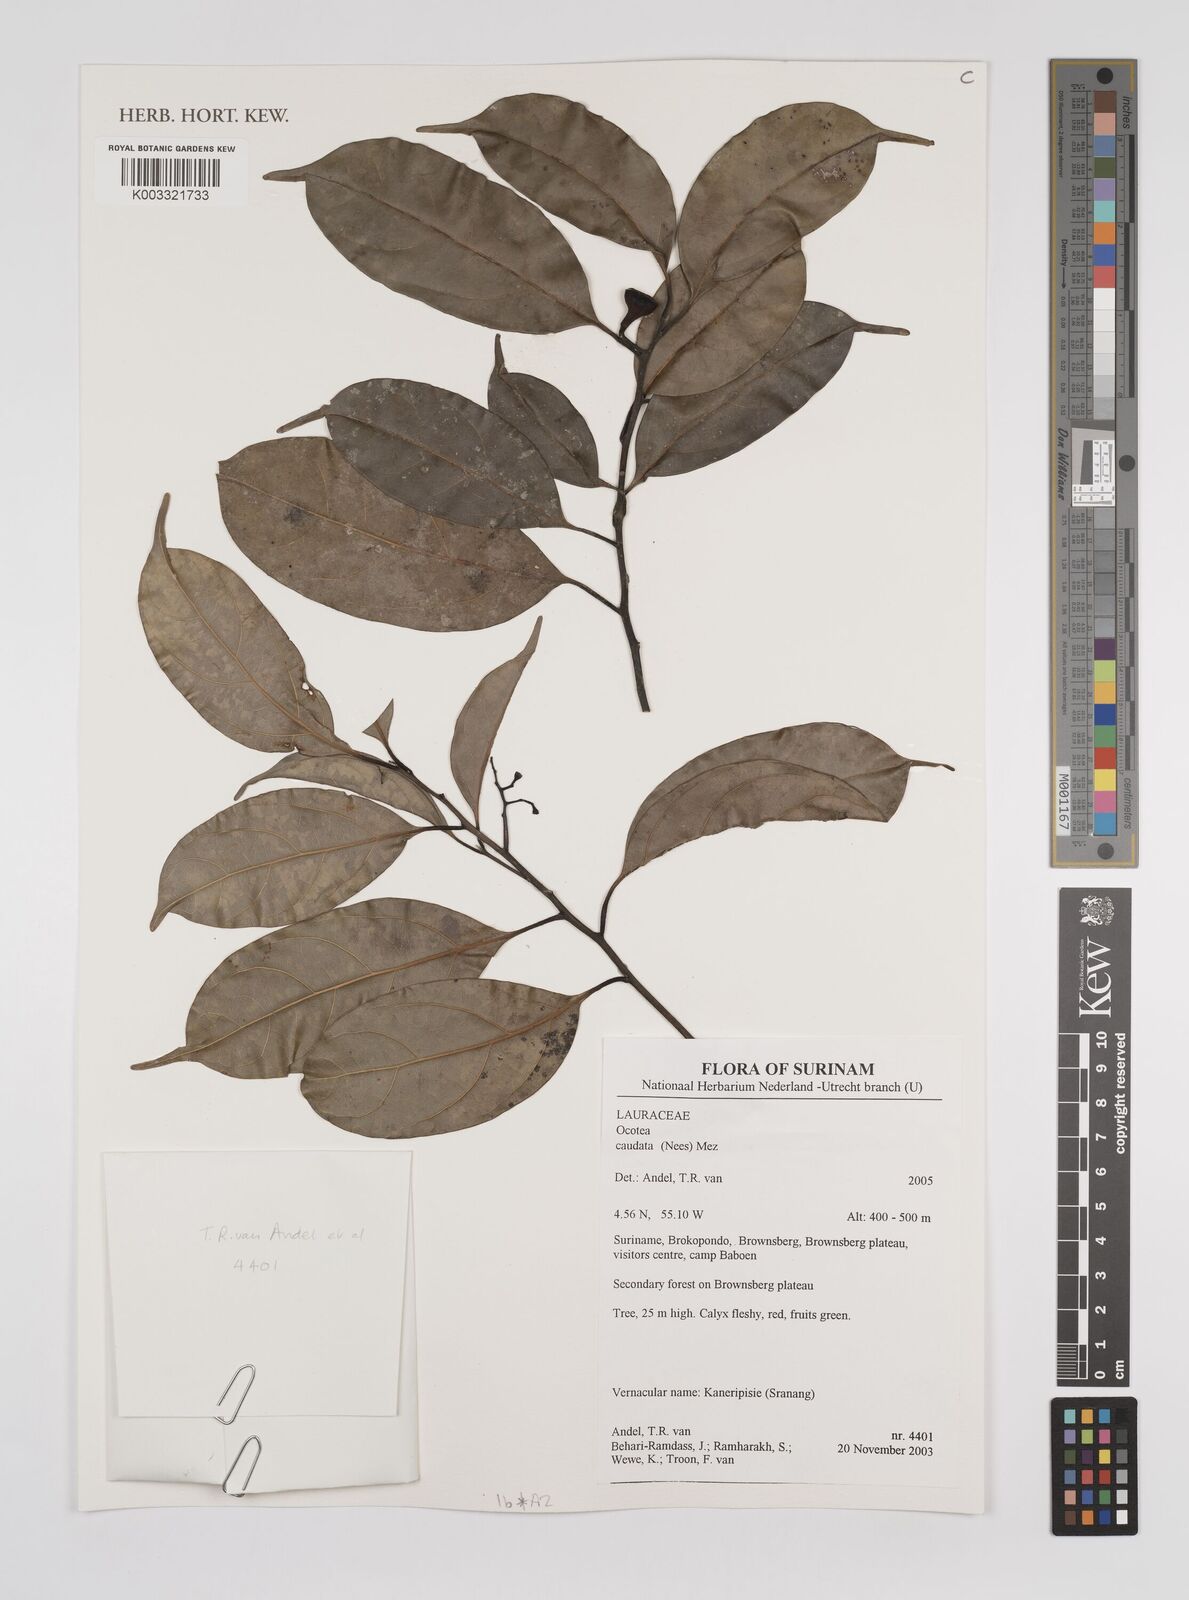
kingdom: Plantae
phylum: Tracheophyta
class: Magnoliopsida
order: Laurales
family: Lauraceae
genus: Ocotea
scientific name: Ocotea leptobotra
